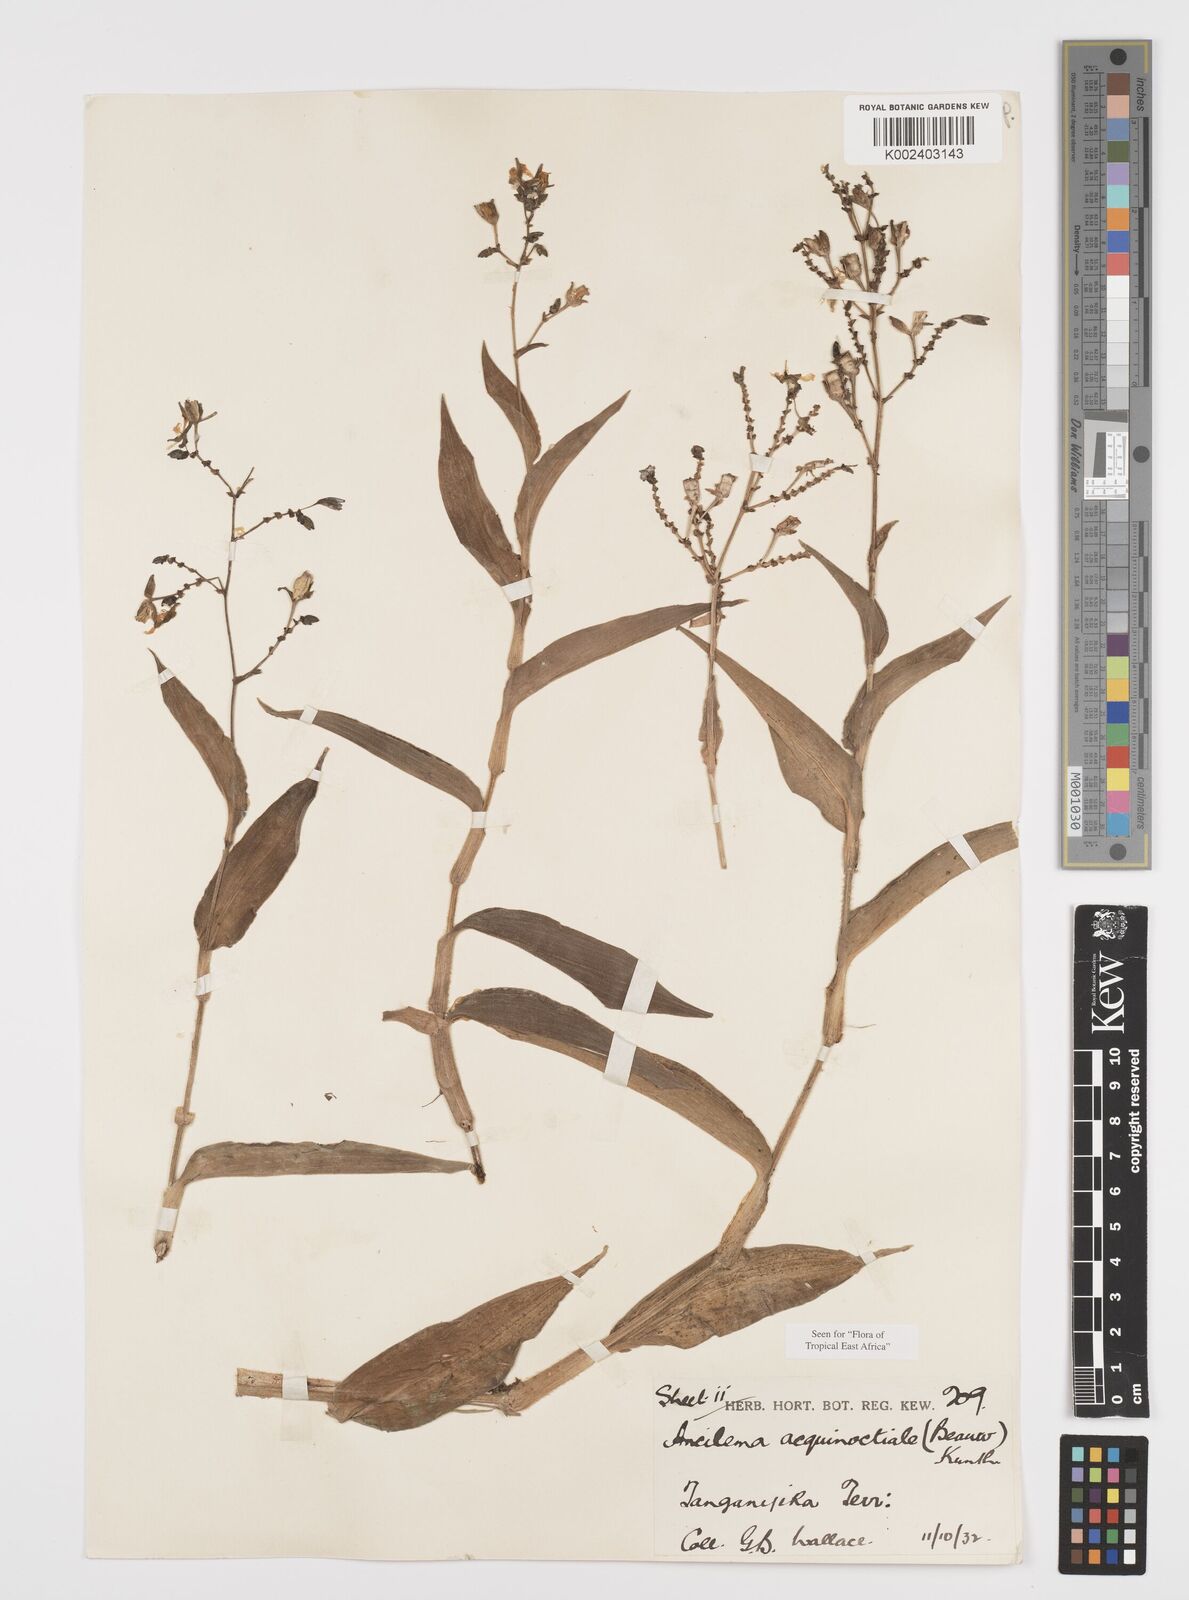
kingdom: Plantae
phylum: Tracheophyta
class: Liliopsida
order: Commelinales
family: Commelinaceae
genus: Aneilema
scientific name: Aneilema aequinoctiale
